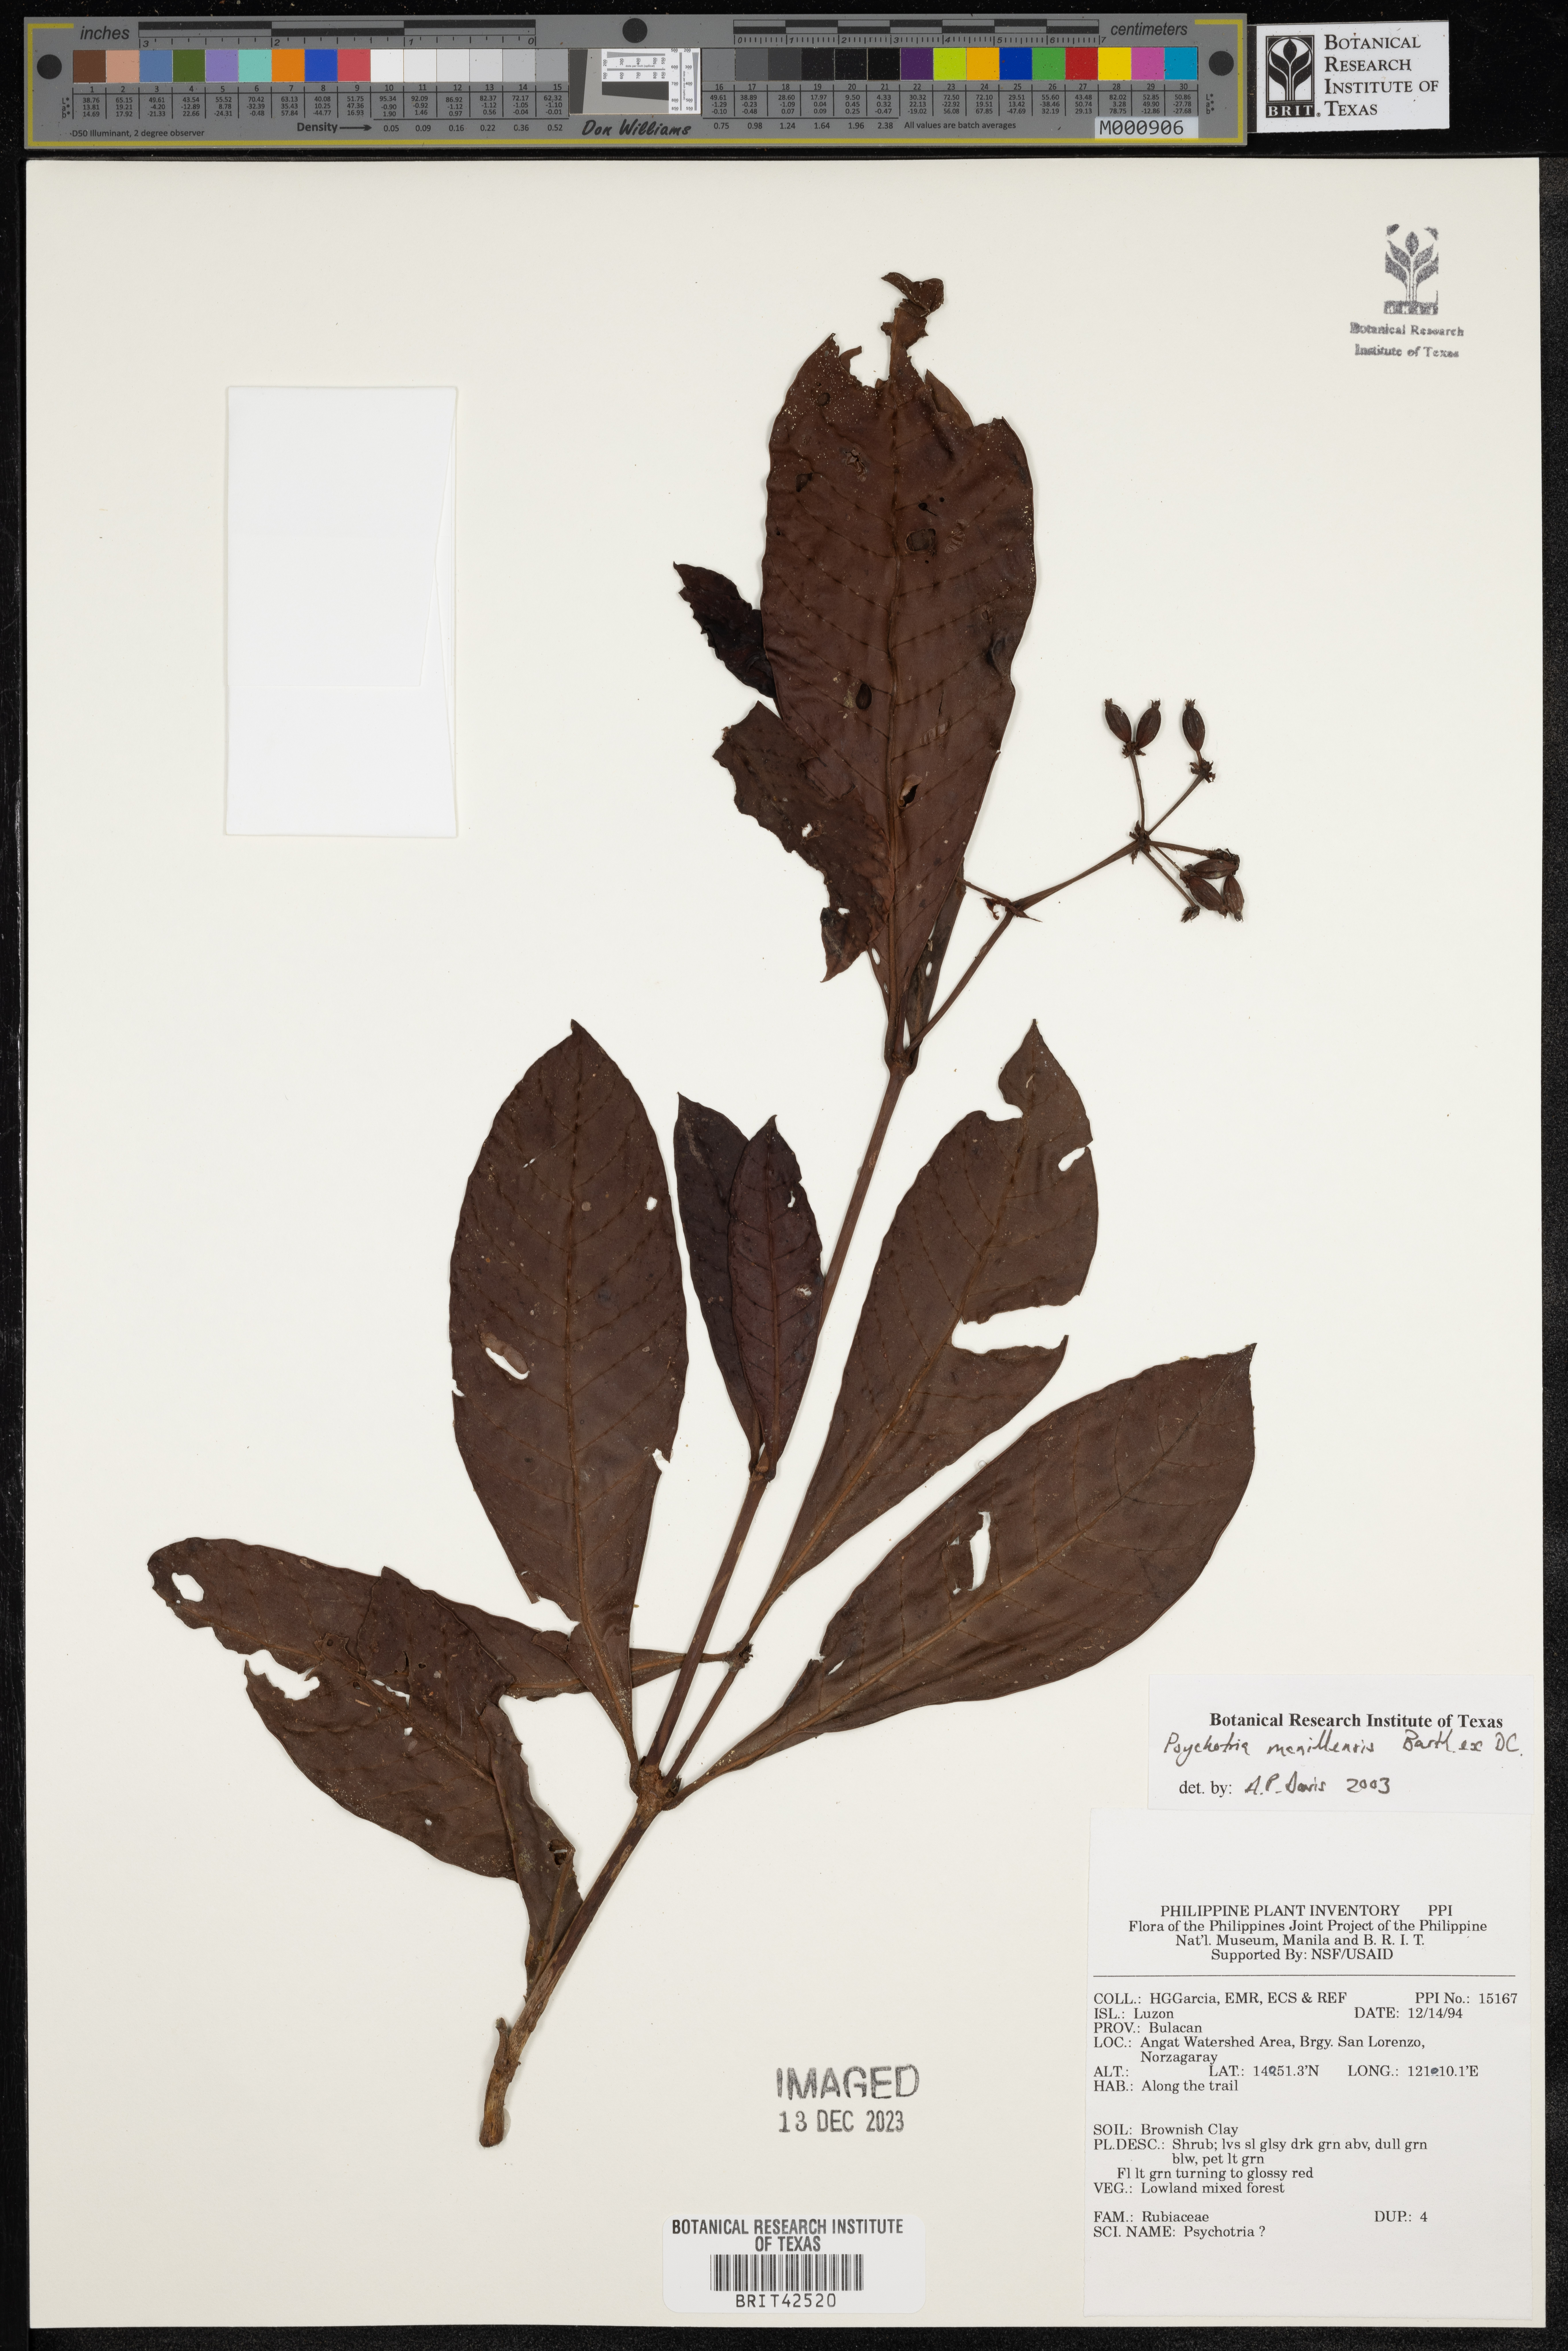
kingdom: Plantae
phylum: Tracheophyta
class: Magnoliopsida
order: Gentianales
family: Rubiaceae
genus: Psychotria
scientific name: Psychotria manillensis
